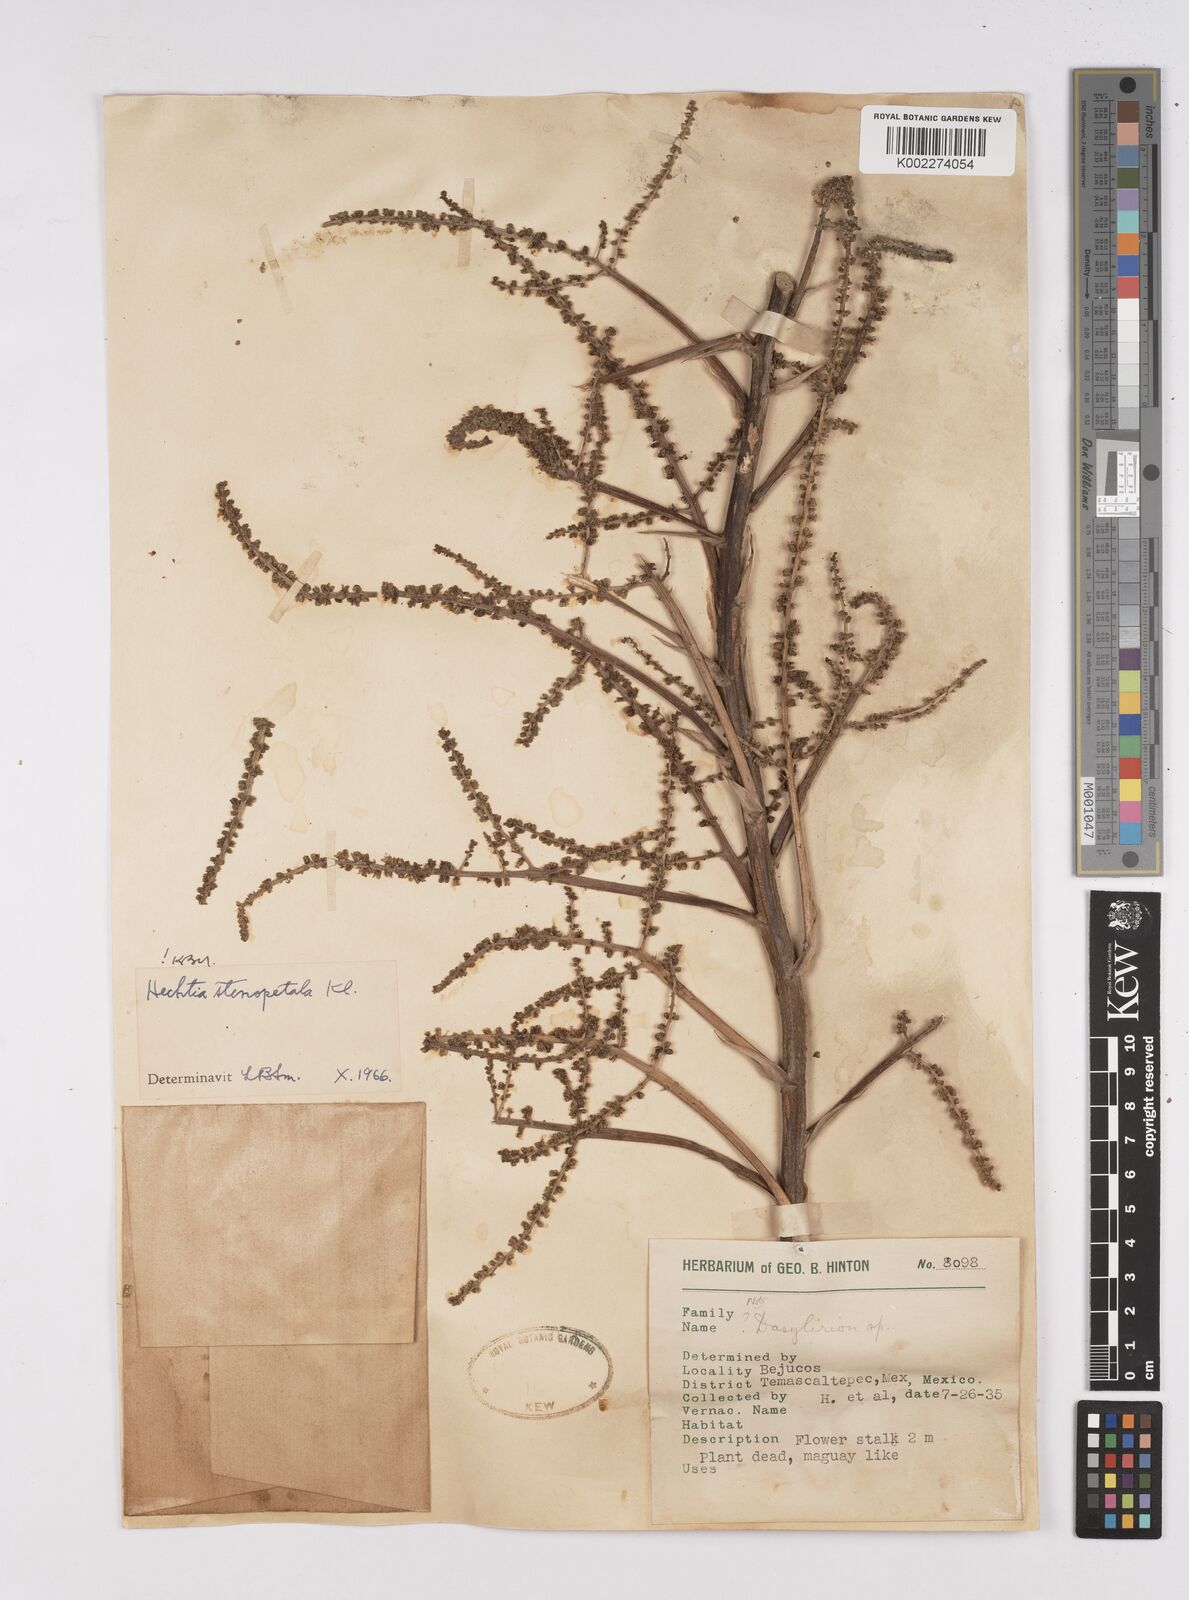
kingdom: Plantae
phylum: Tracheophyta
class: Liliopsida
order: Poales
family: Bromeliaceae
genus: Hechtia
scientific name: Hechtia stenopetala
